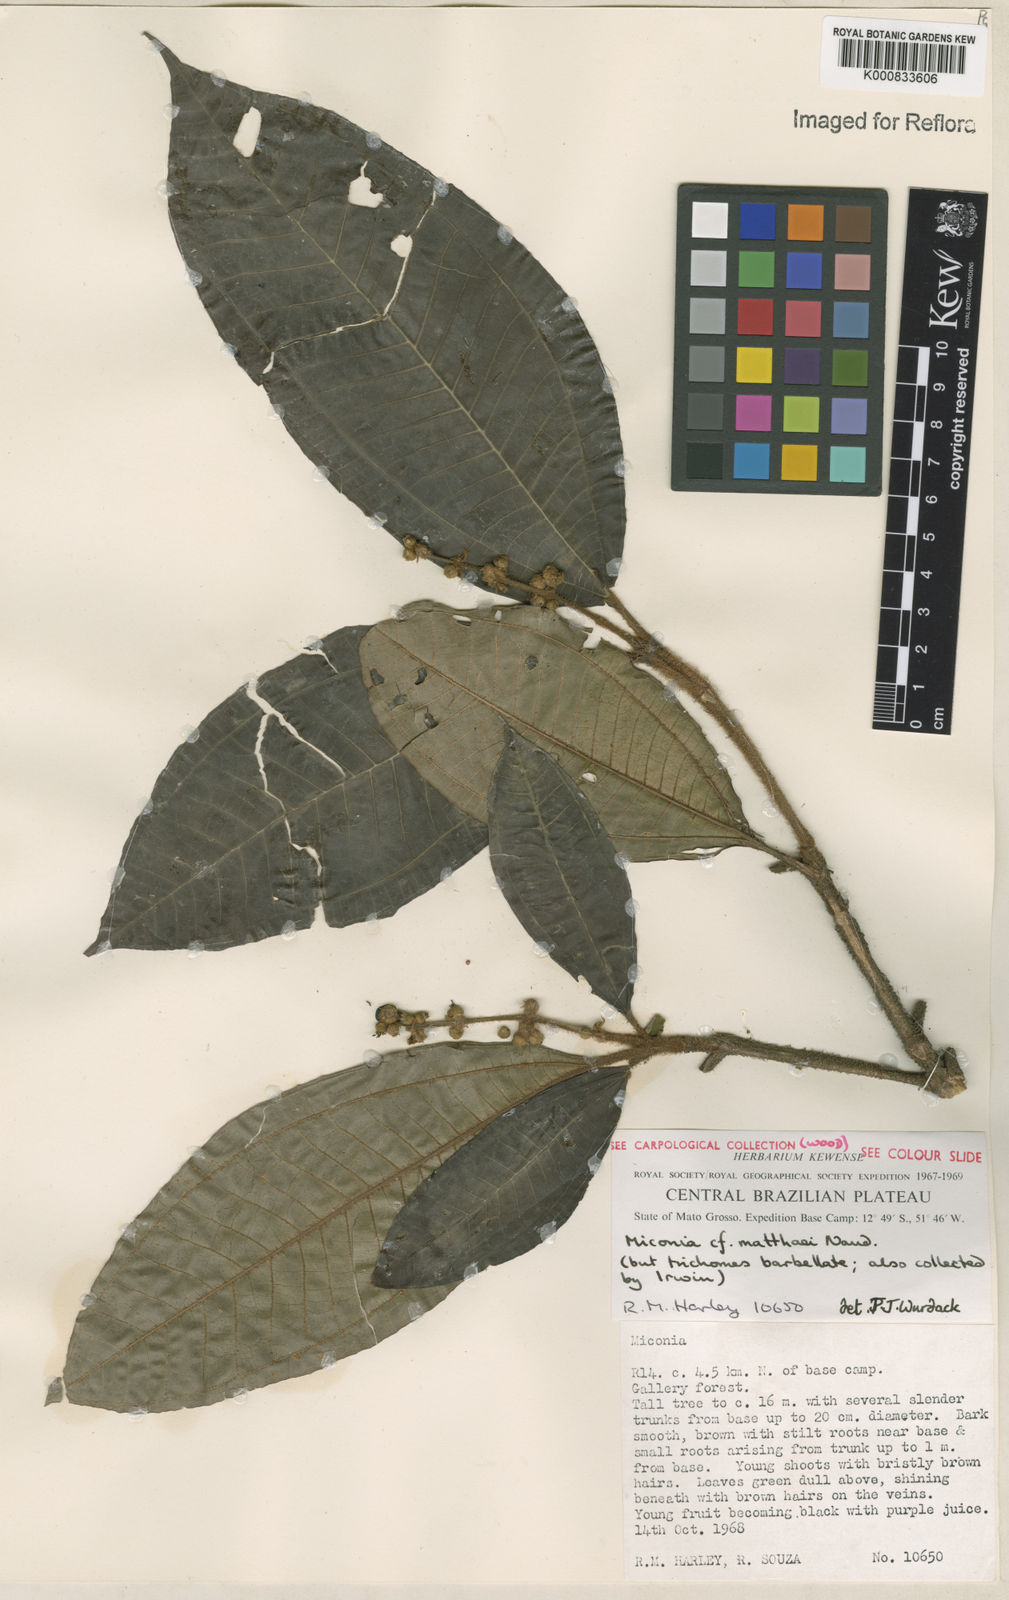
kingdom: Plantae
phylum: Tracheophyta
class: Magnoliopsida
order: Myrtales
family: Melastomataceae
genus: Miconia
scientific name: Miconia matthaei
